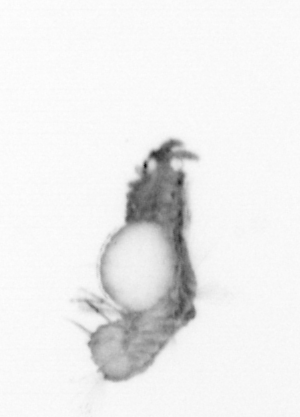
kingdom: Animalia
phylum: Annelida
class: Polychaeta
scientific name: Polychaeta
